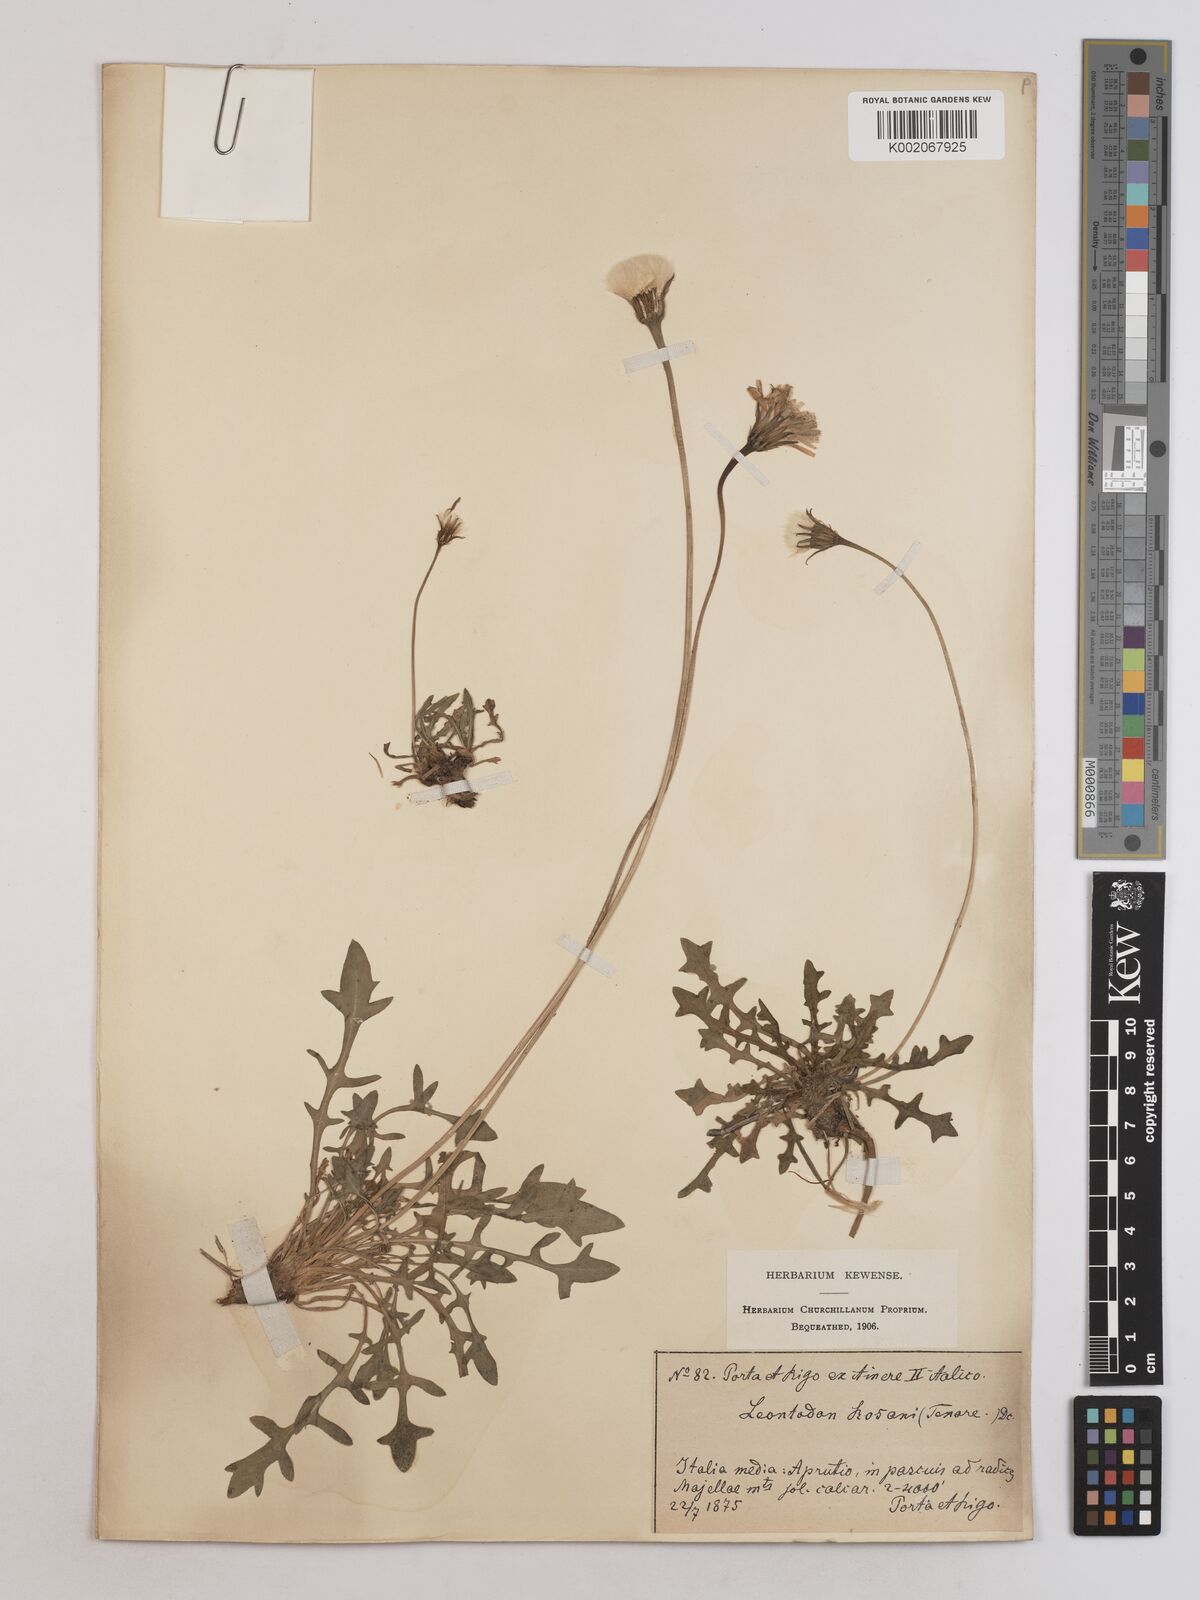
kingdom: Plantae
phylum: Tracheophyta
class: Magnoliopsida
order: Asterales
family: Asteraceae
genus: Leontodon
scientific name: Leontodon rosanoi
